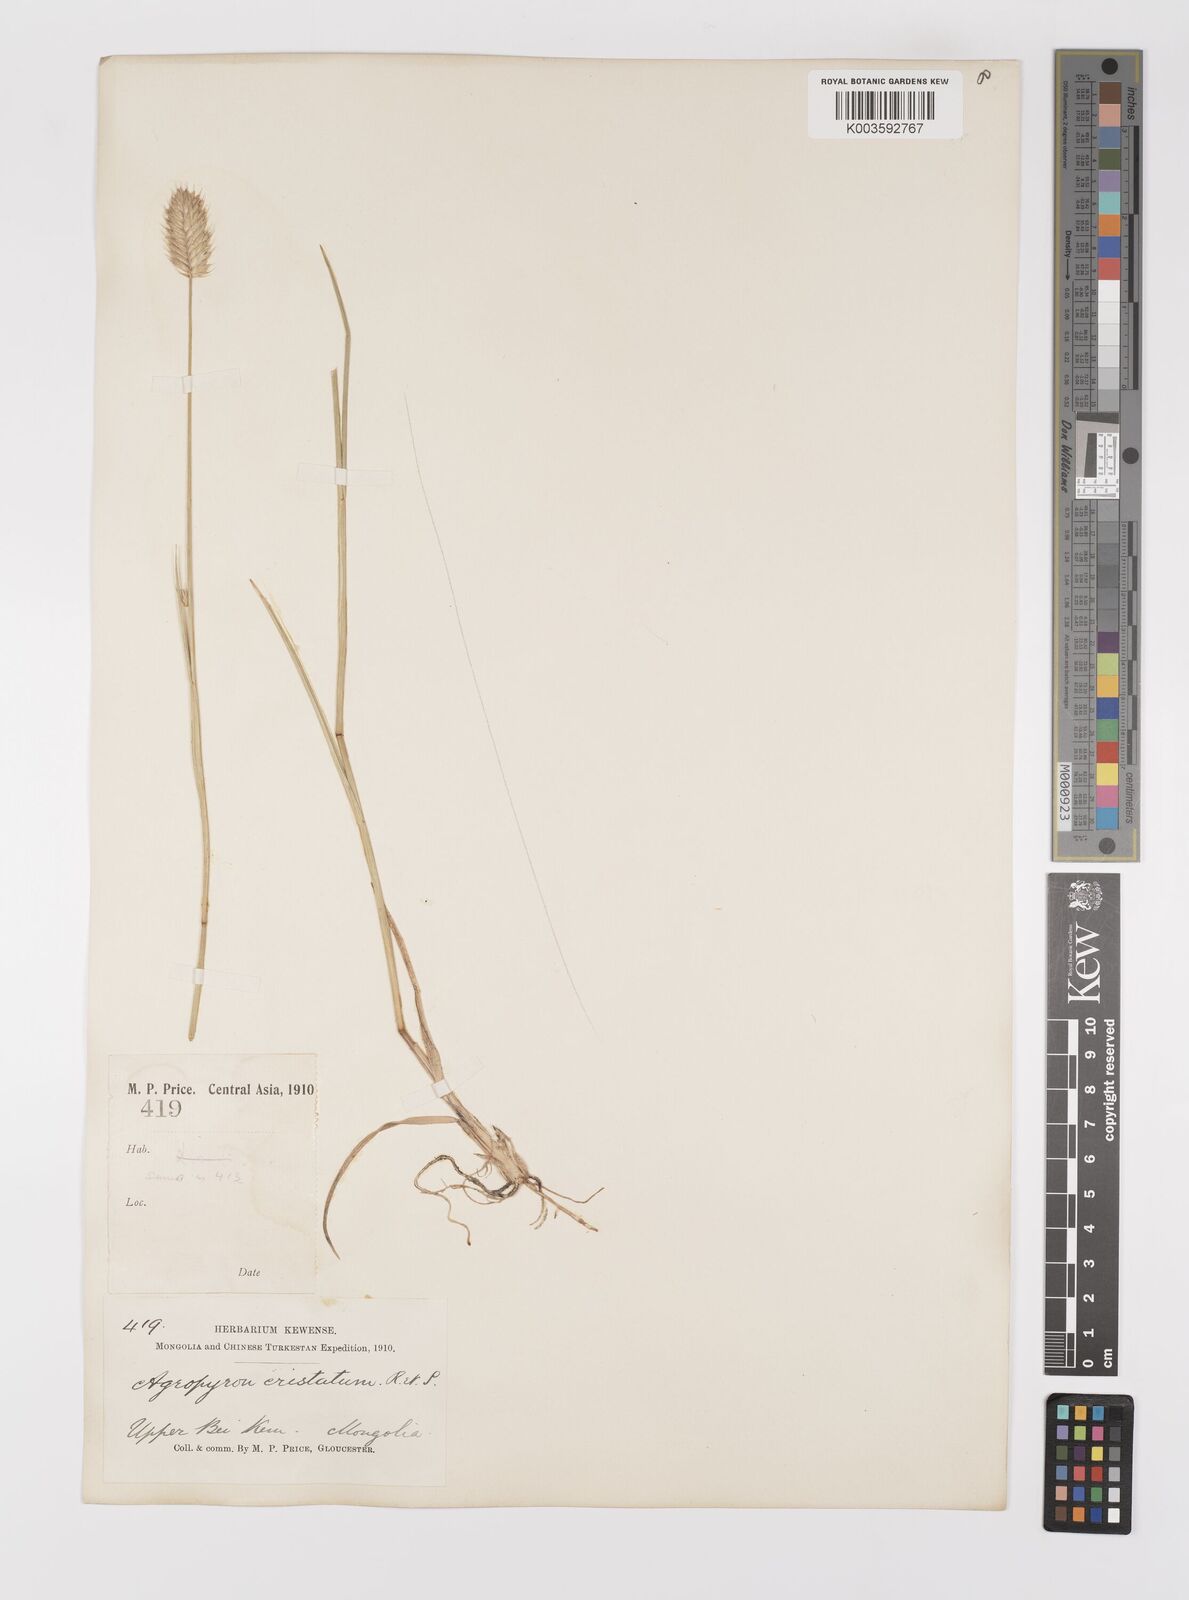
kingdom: Plantae
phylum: Tracheophyta
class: Liliopsida
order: Poales
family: Poaceae
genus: Agropyron
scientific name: Agropyron cristatum
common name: Crested wheatgrass
